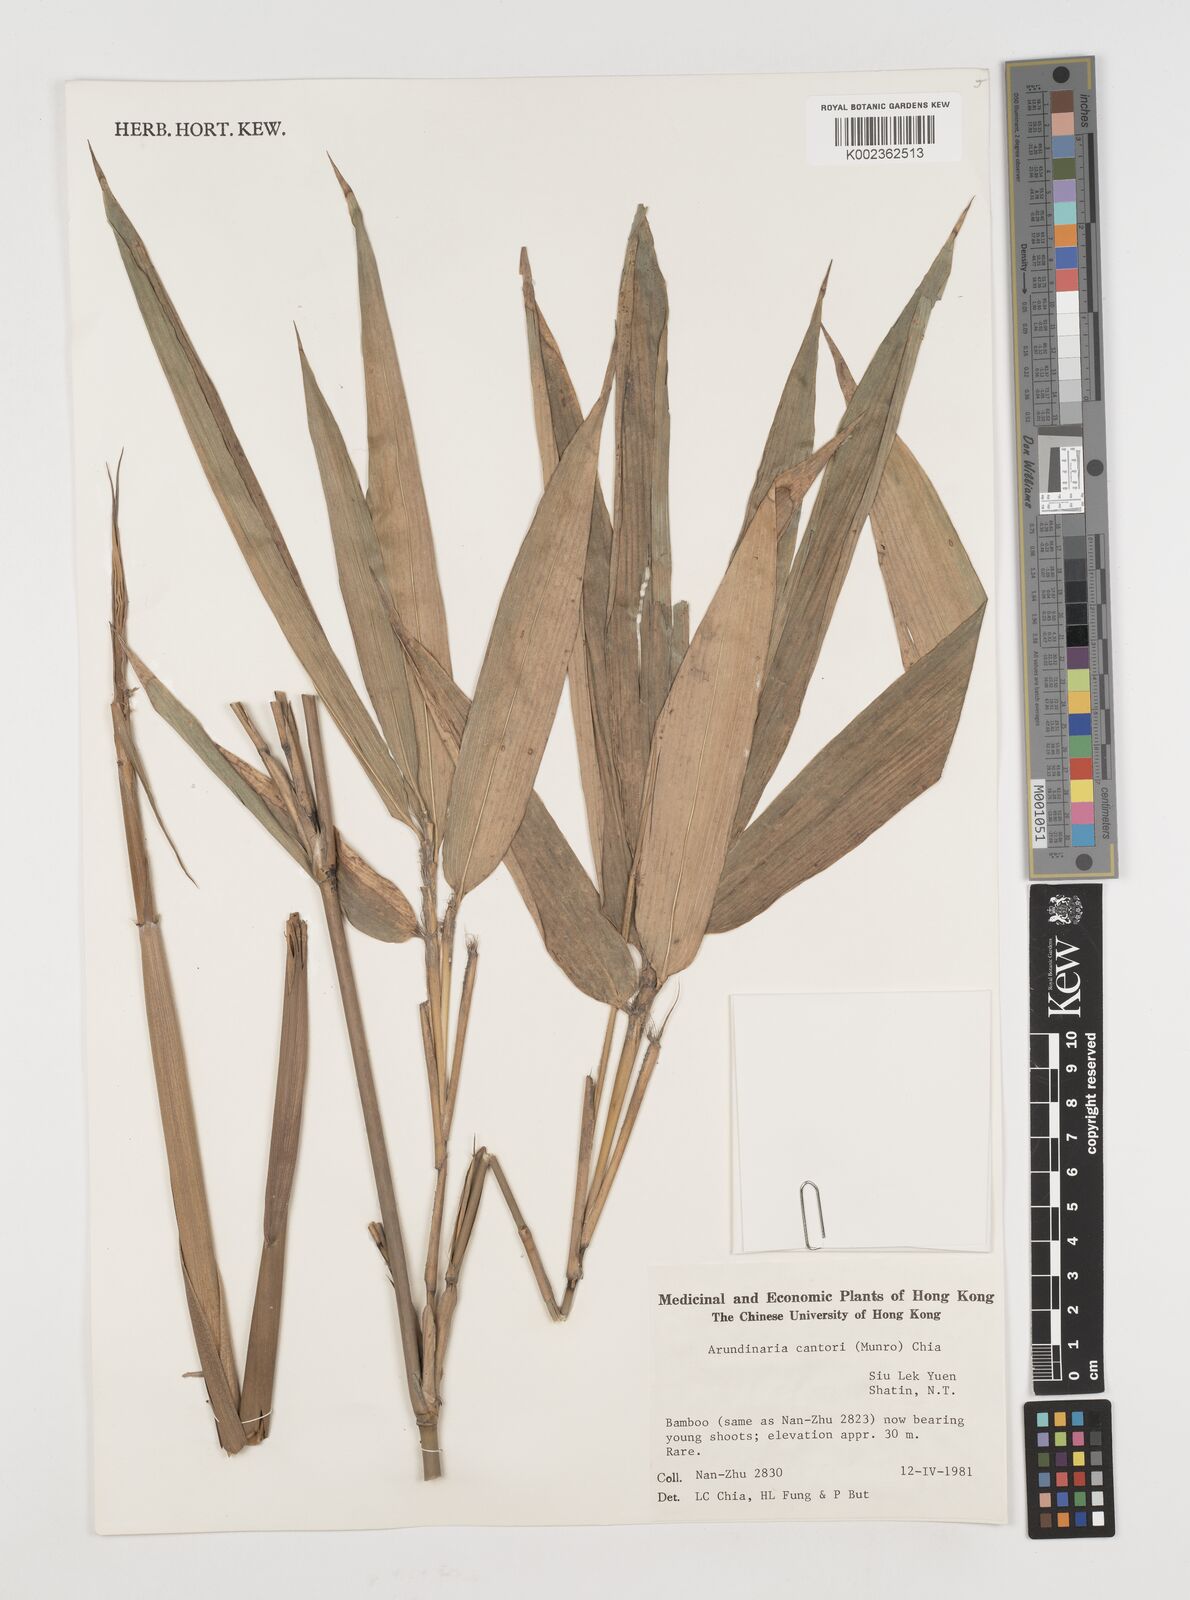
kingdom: Plantae
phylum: Tracheophyta
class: Liliopsida
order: Poales
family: Poaceae
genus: Pseudosasa
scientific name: Pseudosasa cantorii
